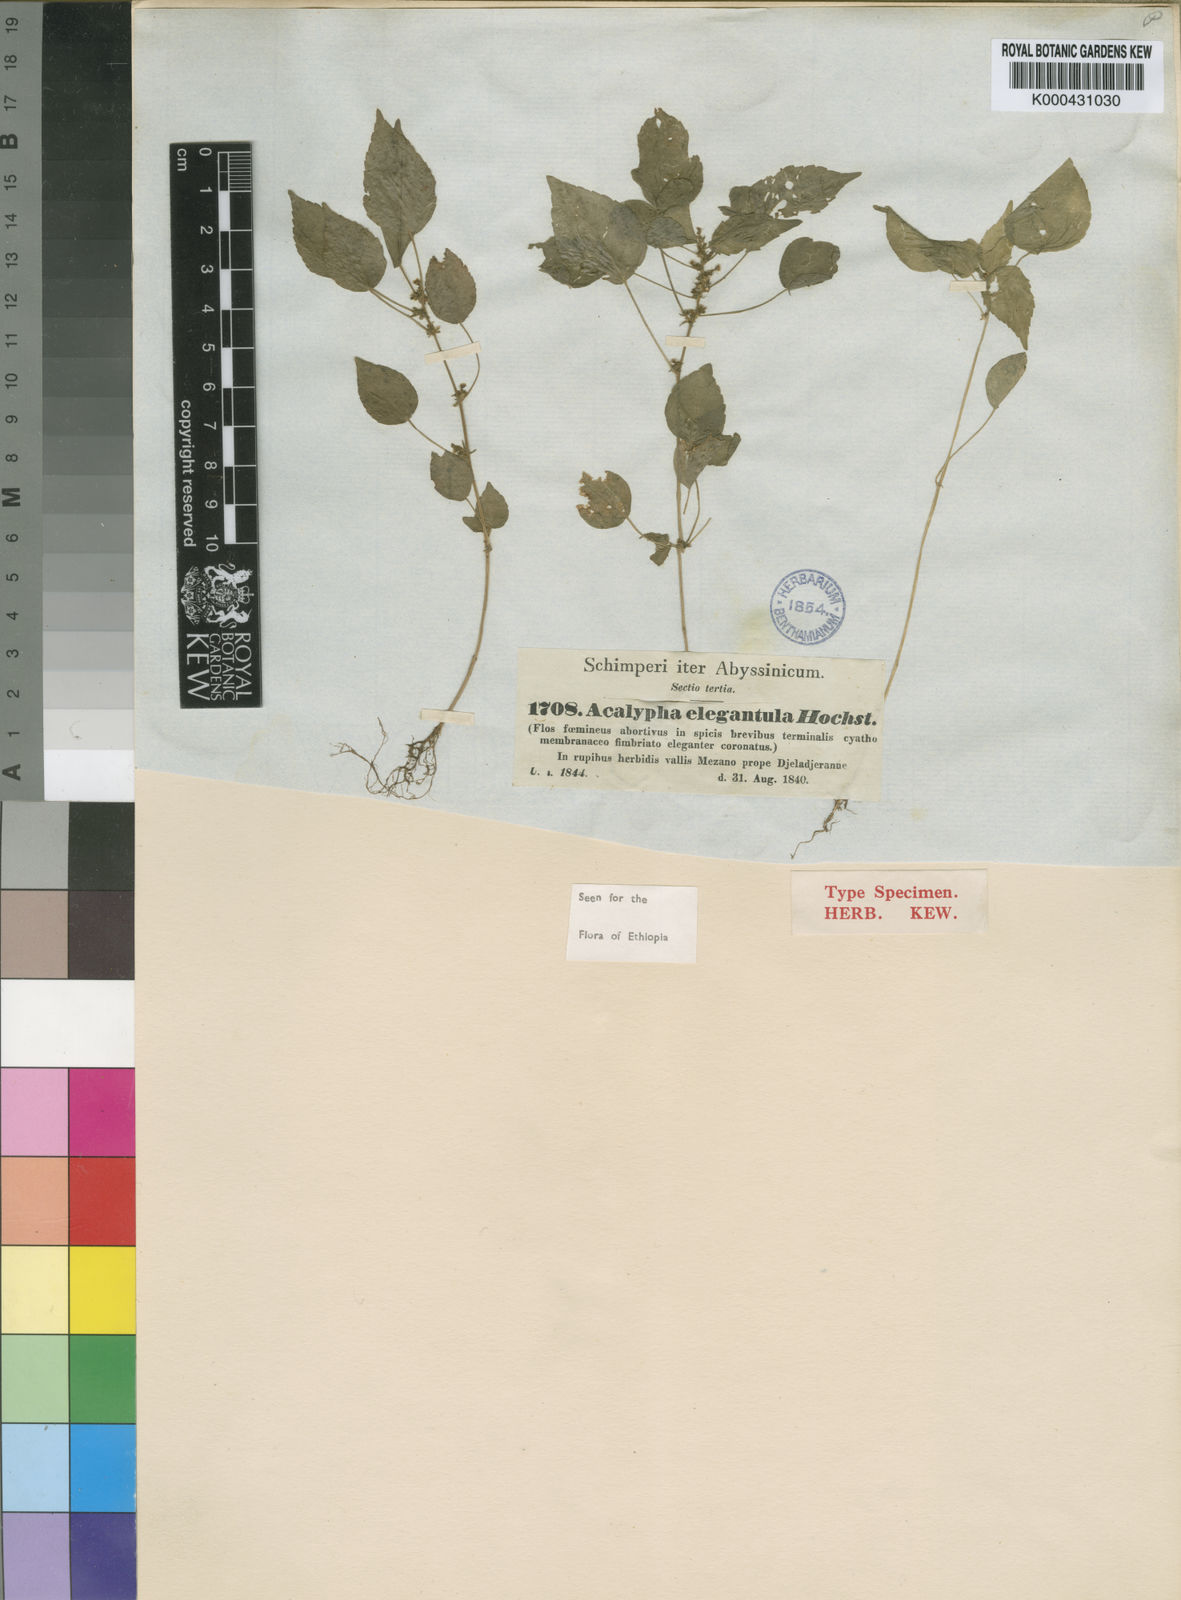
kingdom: Plantae
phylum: Tracheophyta
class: Magnoliopsida
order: Malpighiales
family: Euphorbiaceae
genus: Acalypha
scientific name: Acalypha brachystachya
